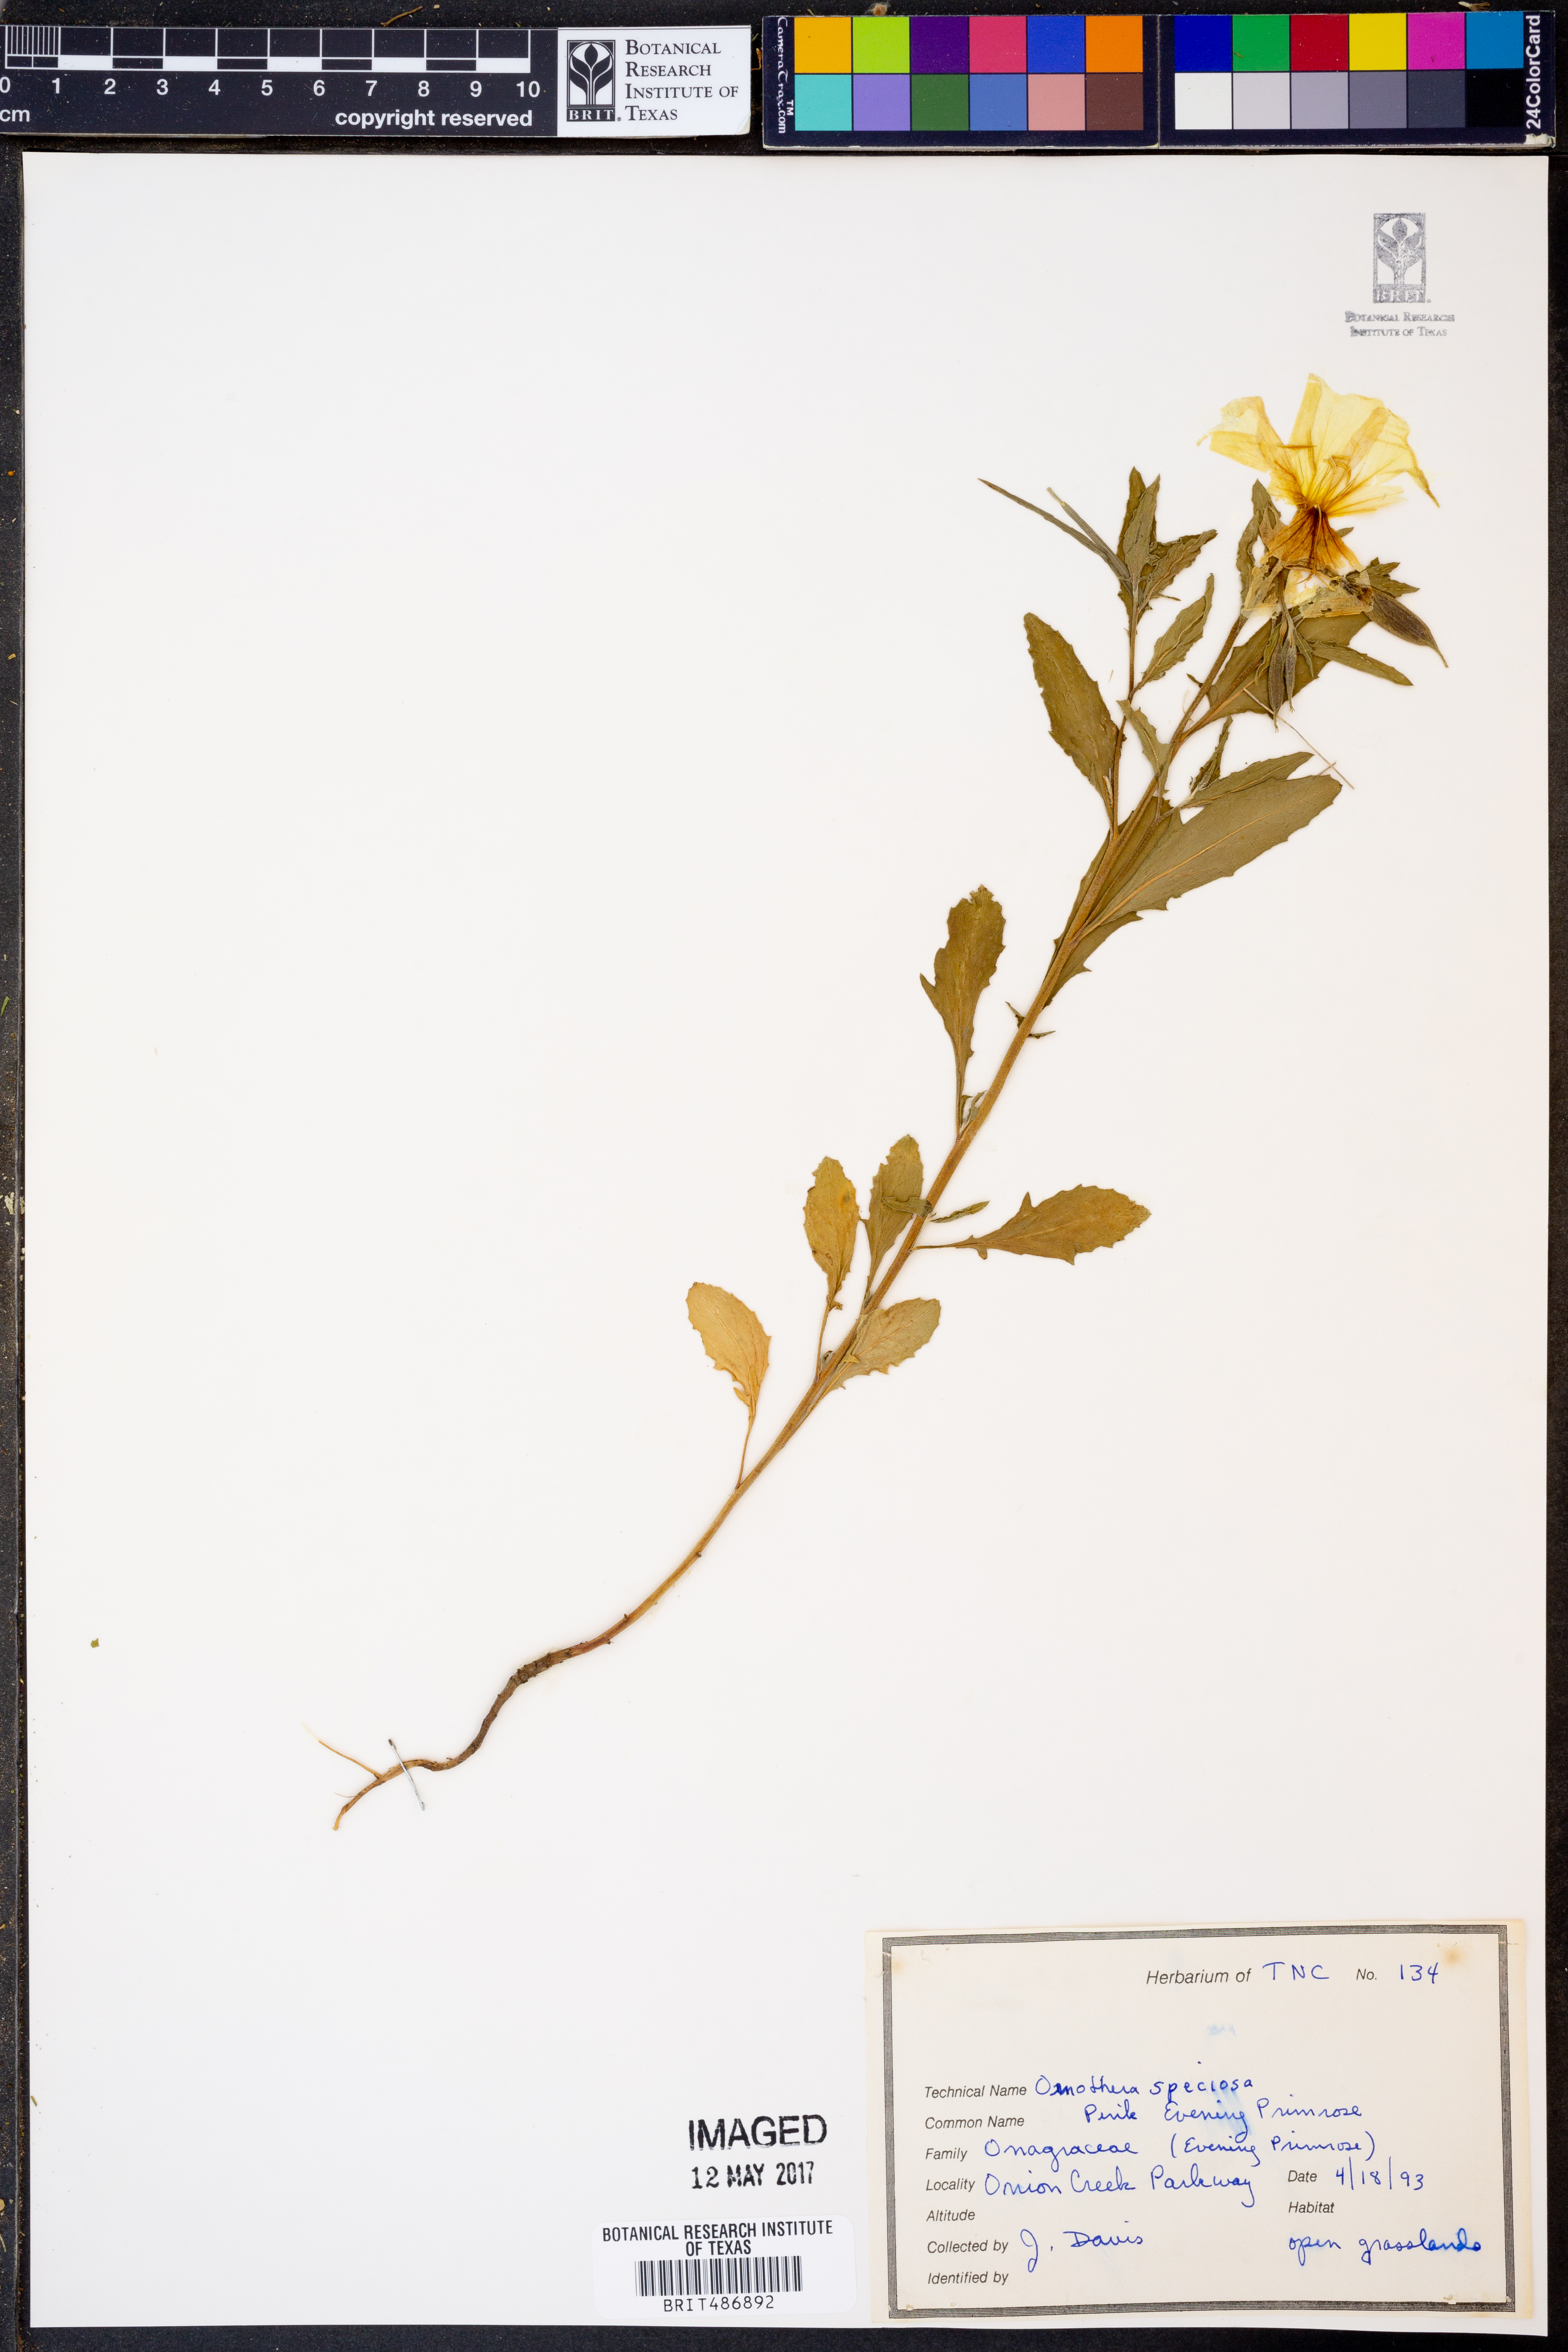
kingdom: Plantae
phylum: Tracheophyta
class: Magnoliopsida
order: Myrtales
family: Onagraceae
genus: Oenothera
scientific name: Oenothera speciosa
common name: White evening-primrose
